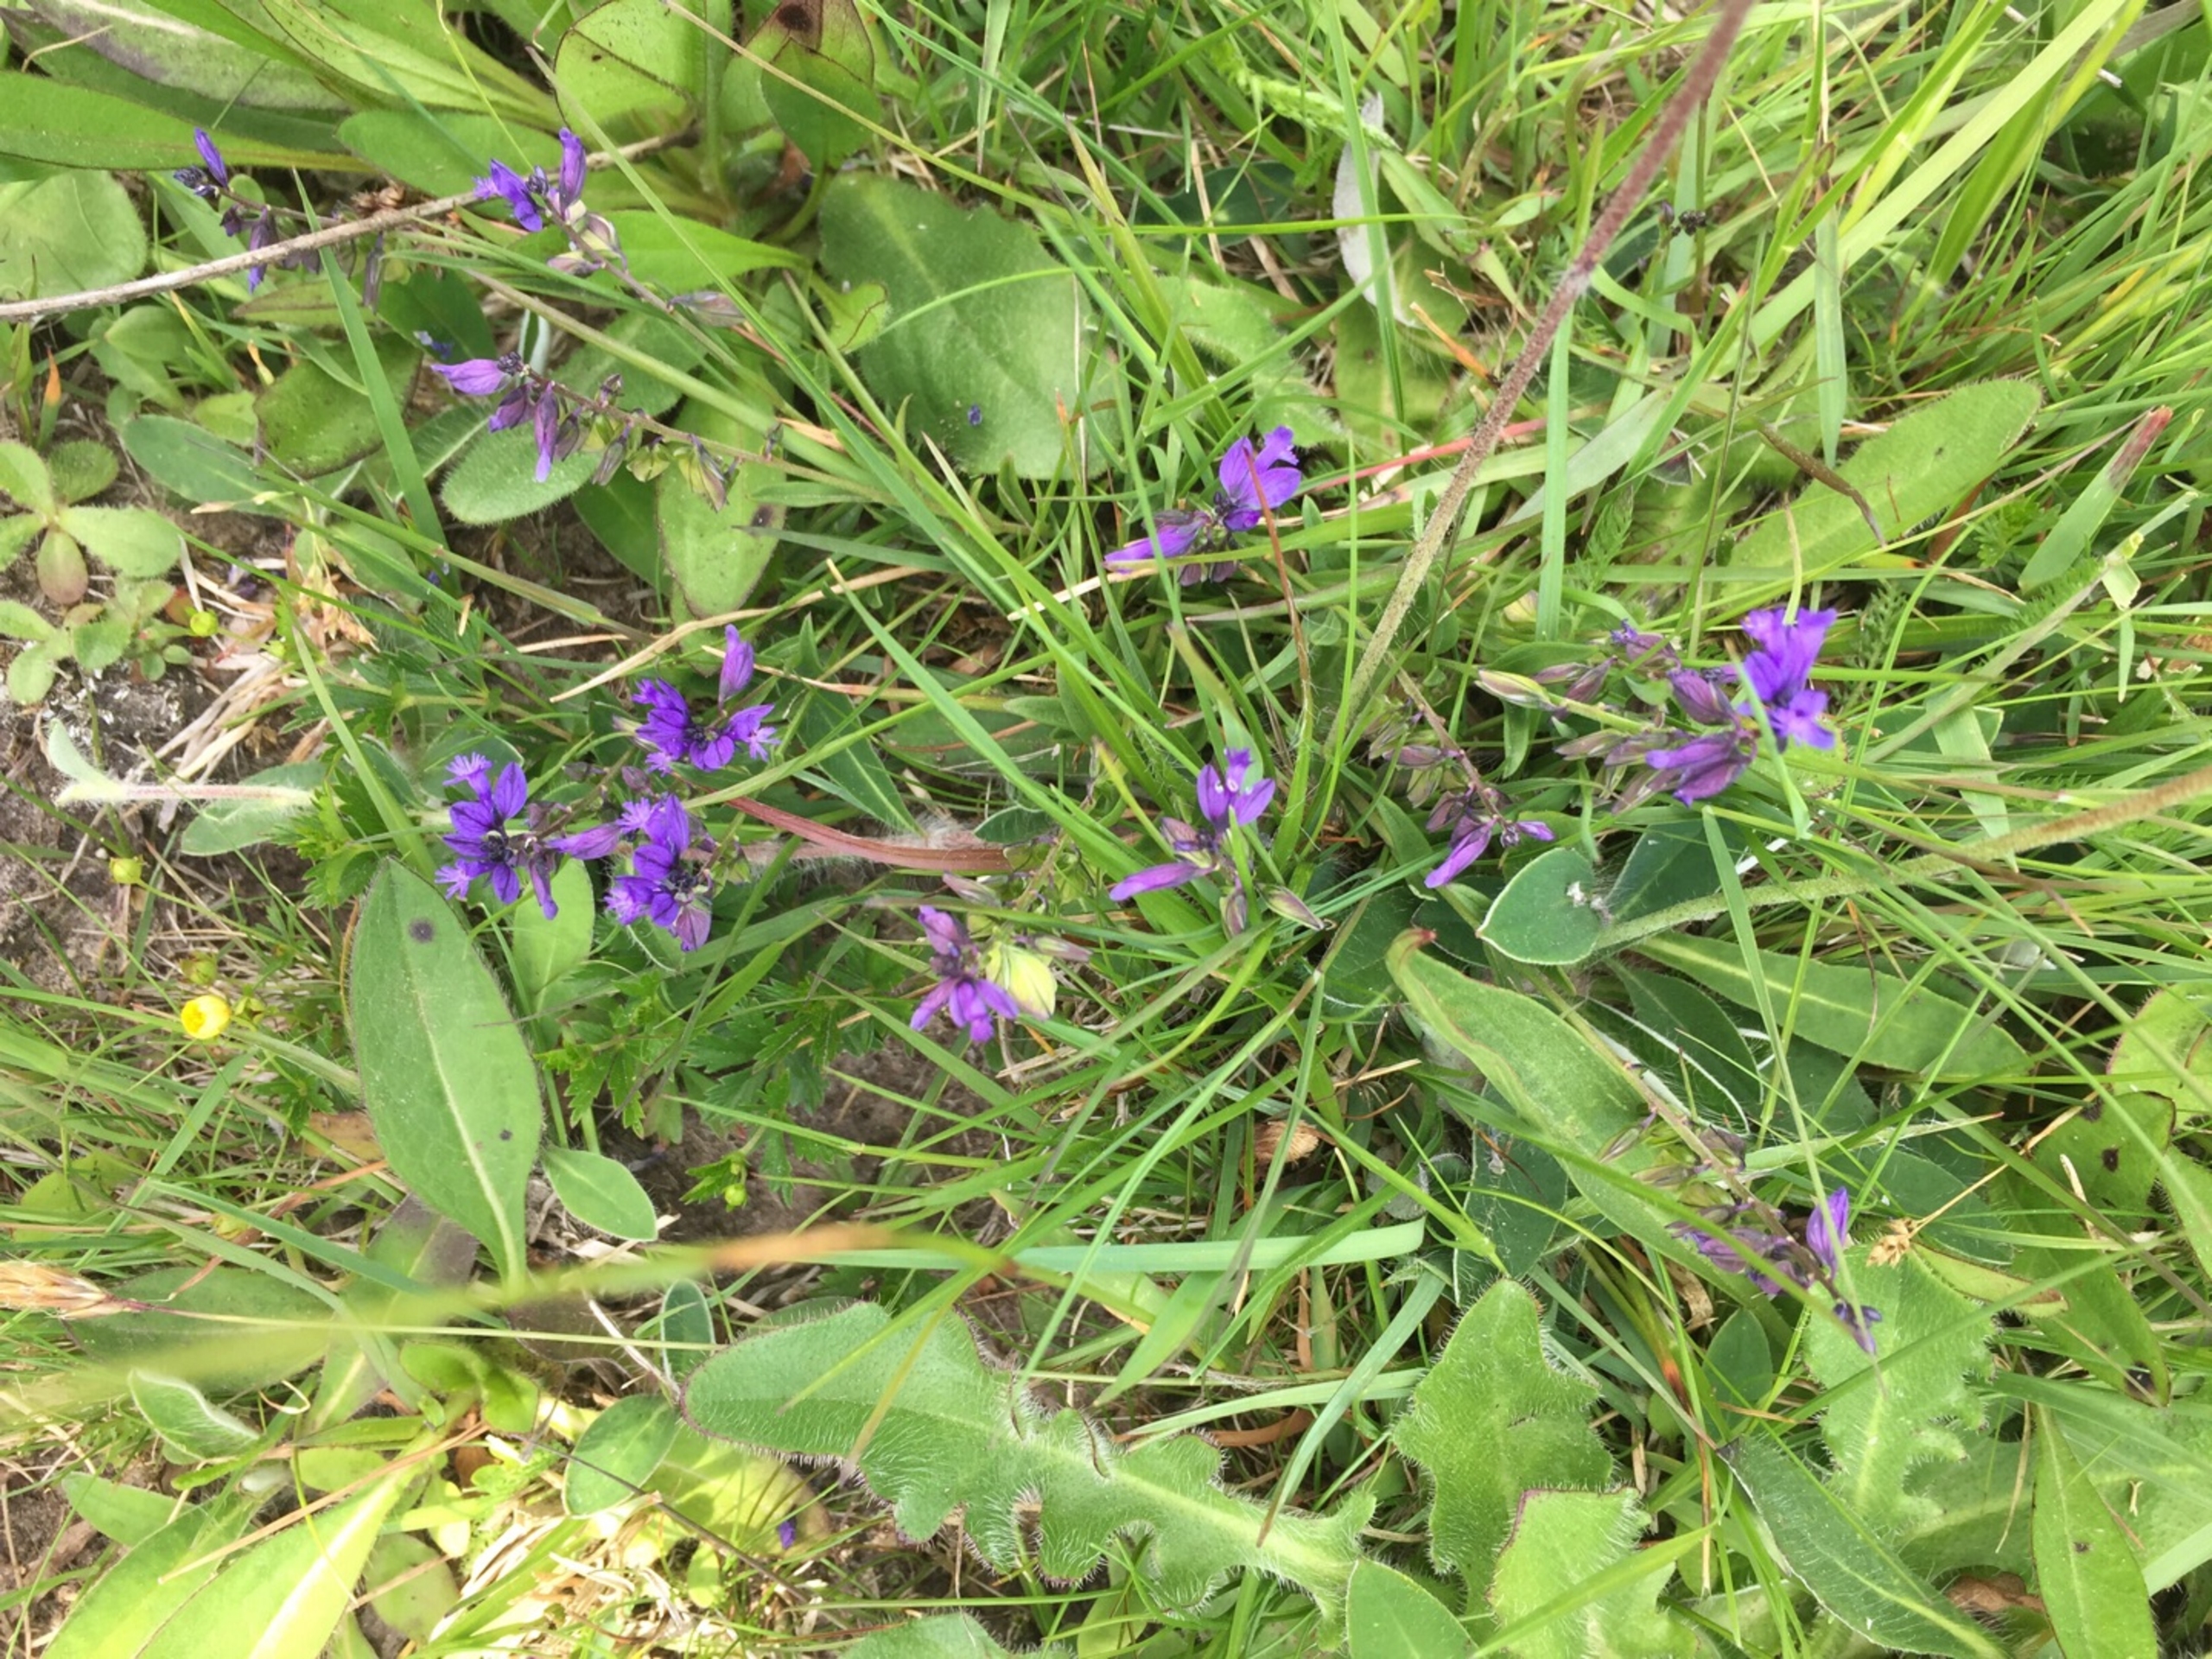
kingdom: Plantae
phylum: Tracheophyta
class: Magnoliopsida
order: Fabales
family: Polygalaceae
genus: Polygala
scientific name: Polygala vulgaris
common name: Almindelig mælkeurt
